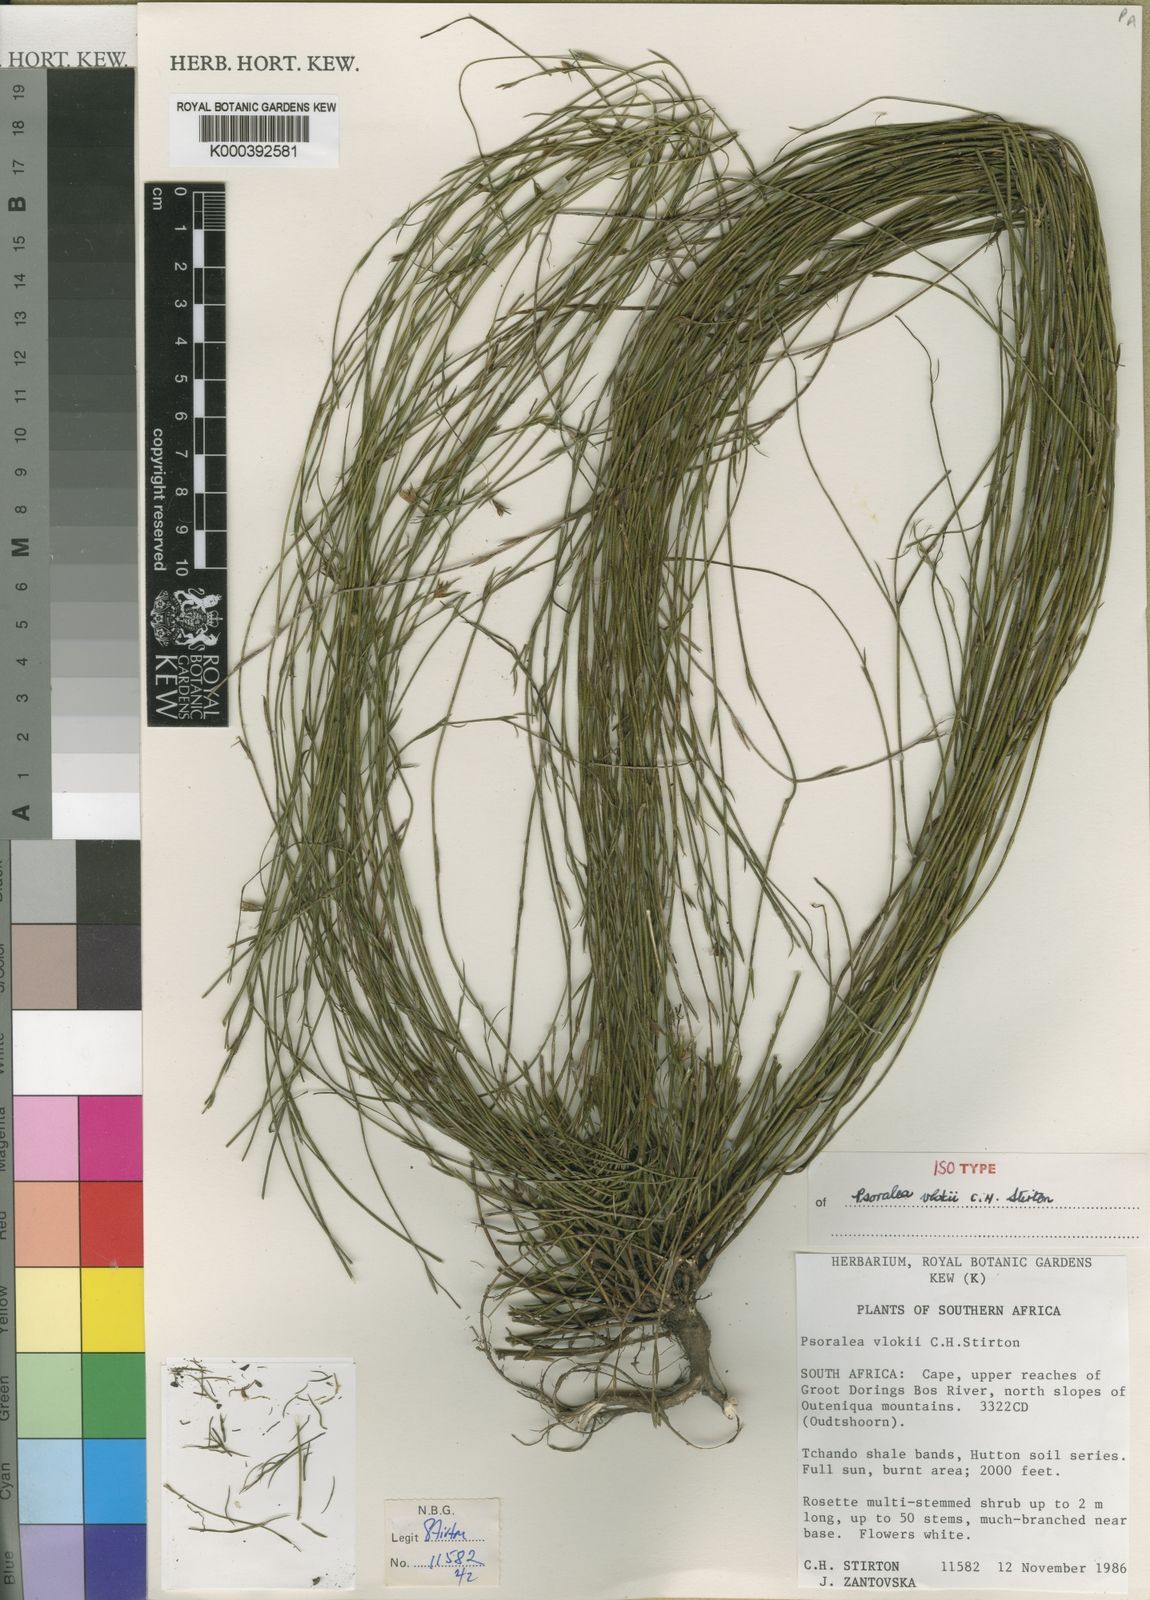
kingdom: Plantae
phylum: Tracheophyta
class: Magnoliopsida
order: Fabales
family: Fabaceae
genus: Psoralea
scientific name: Psoralea
